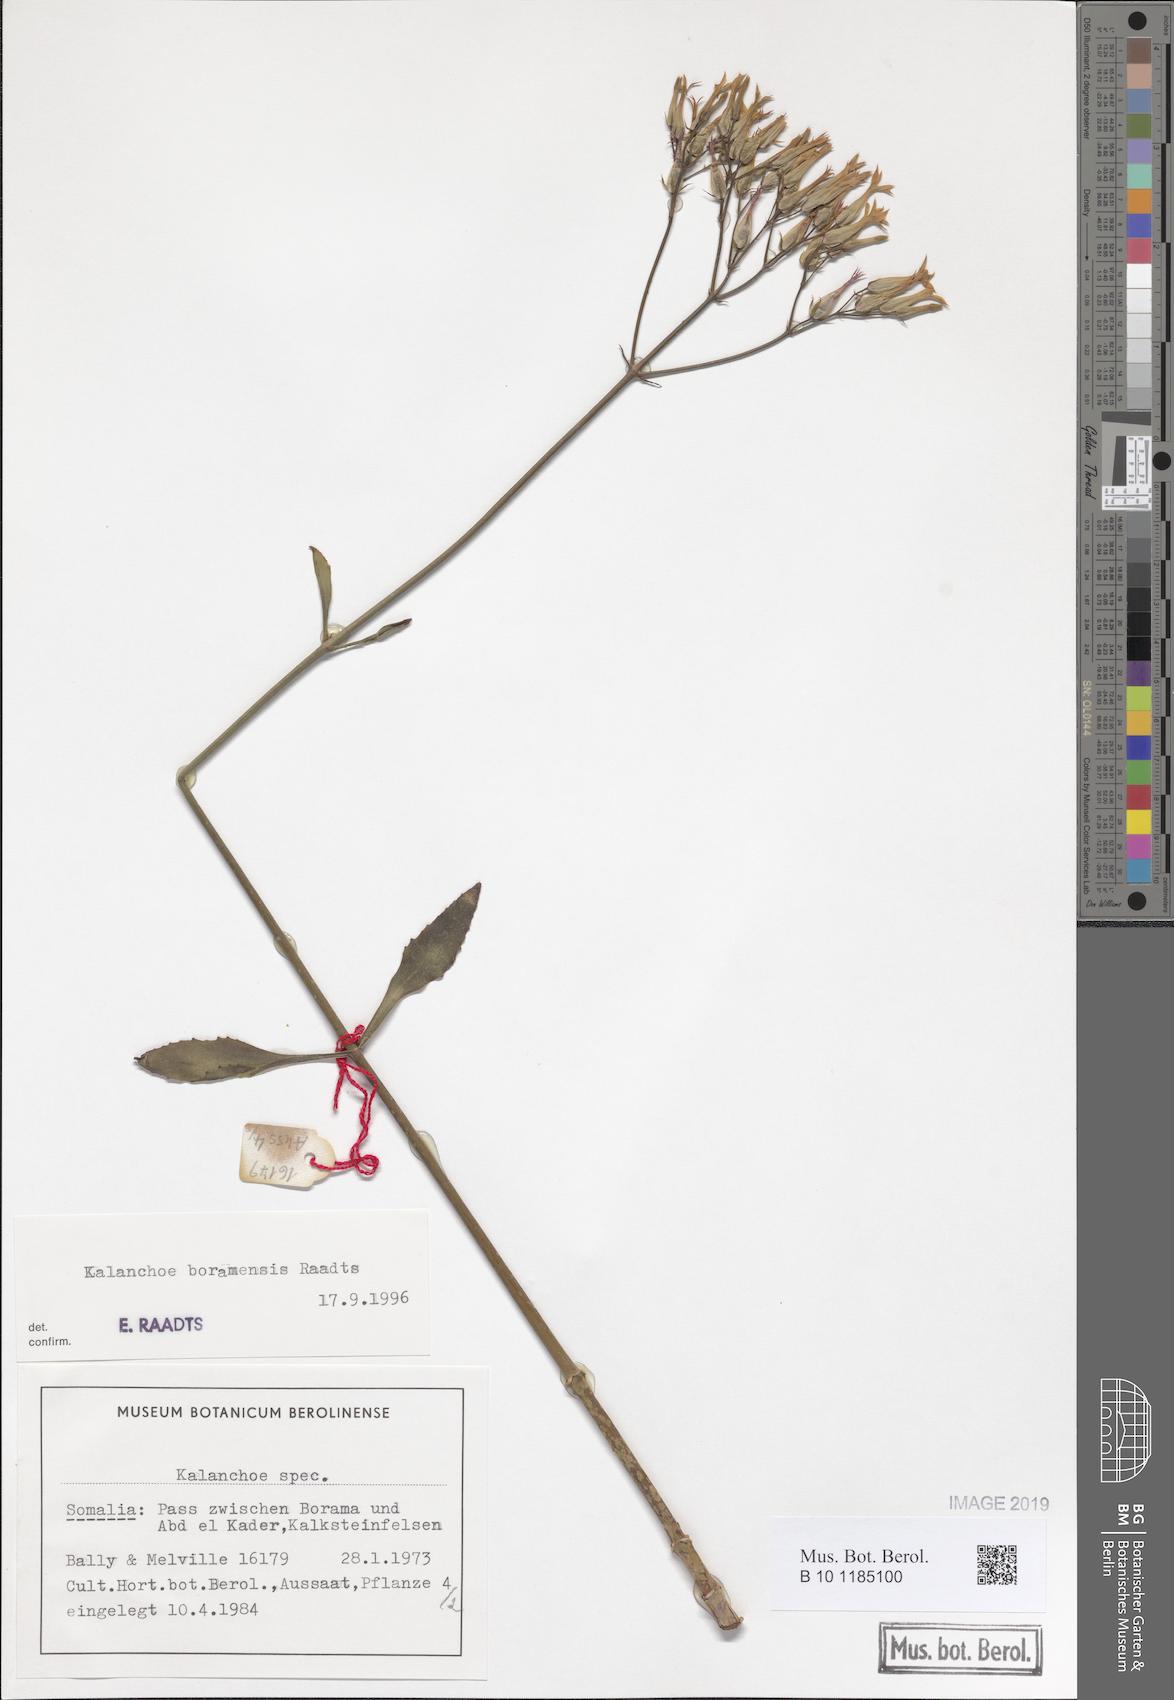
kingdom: Plantae
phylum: Tracheophyta
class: Magnoliopsida
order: Saxifragales
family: Crassulaceae
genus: Kalanchoe
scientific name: Kalanchoe
